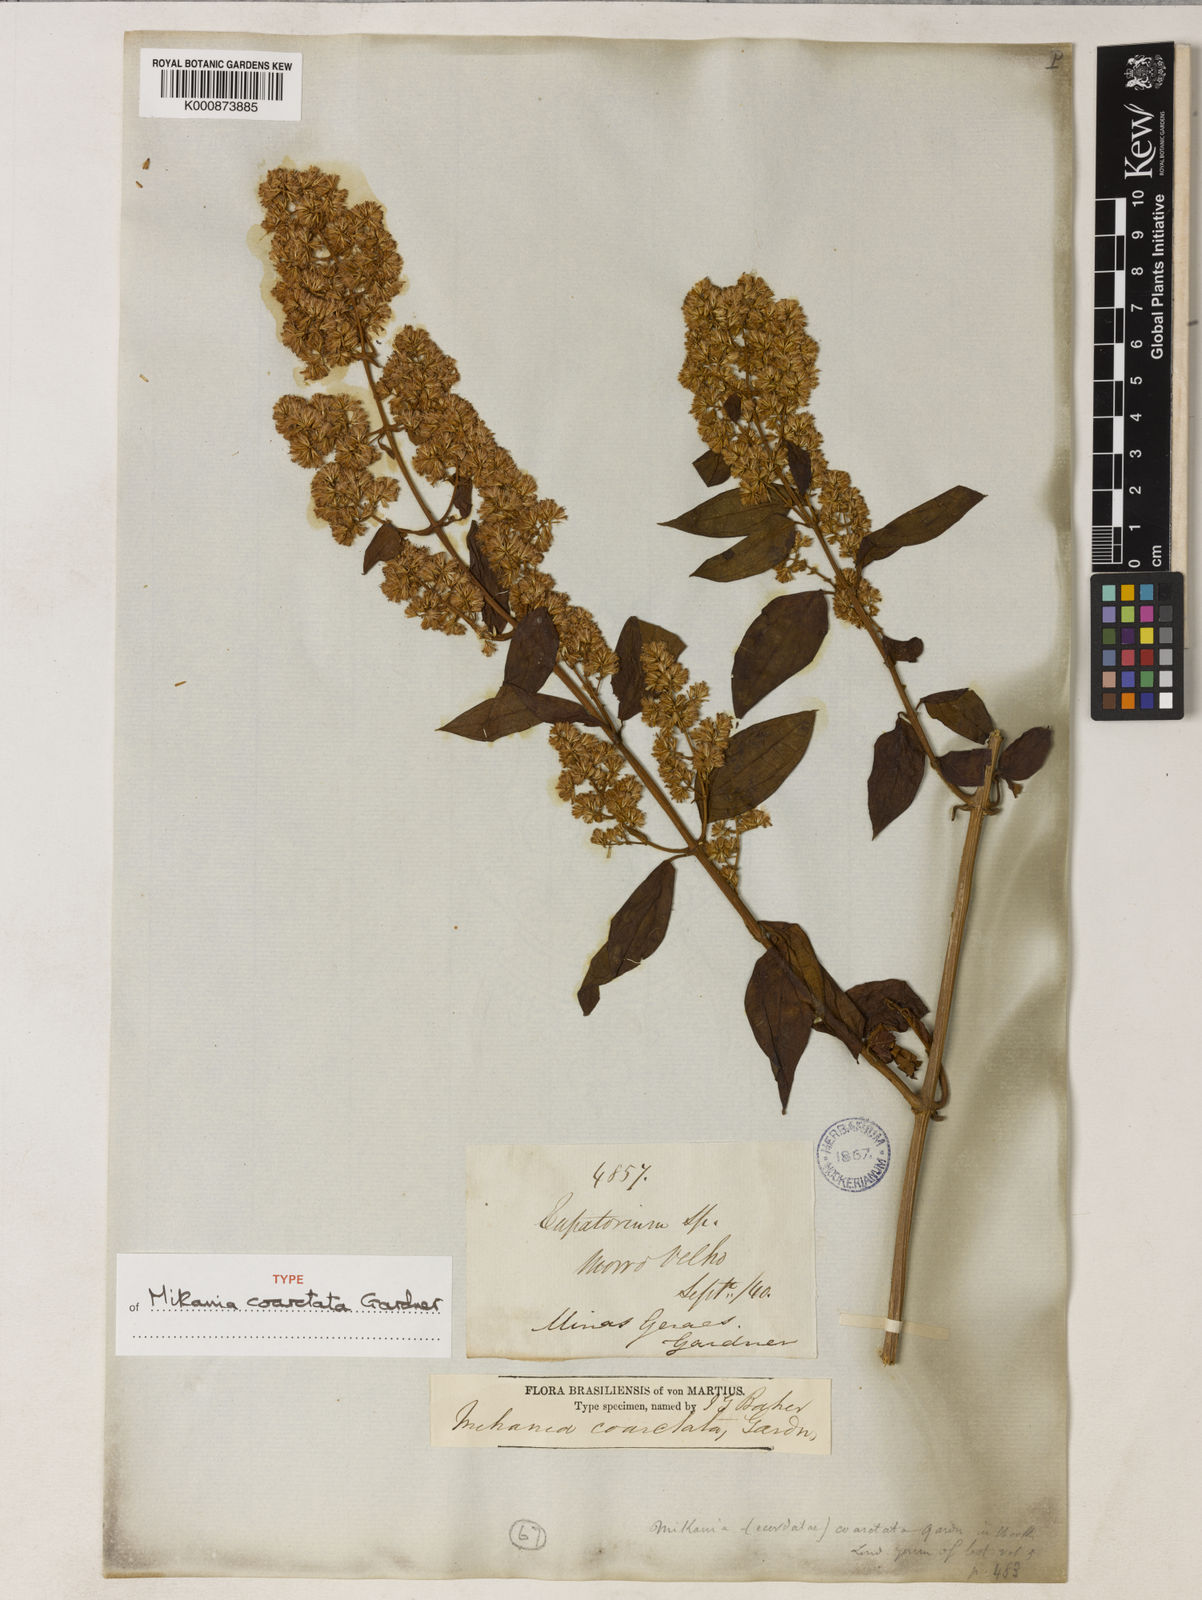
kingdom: Plantae
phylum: Tracheophyta
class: Magnoliopsida
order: Asterales
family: Asteraceae
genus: Mikania
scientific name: Mikania coarctata
